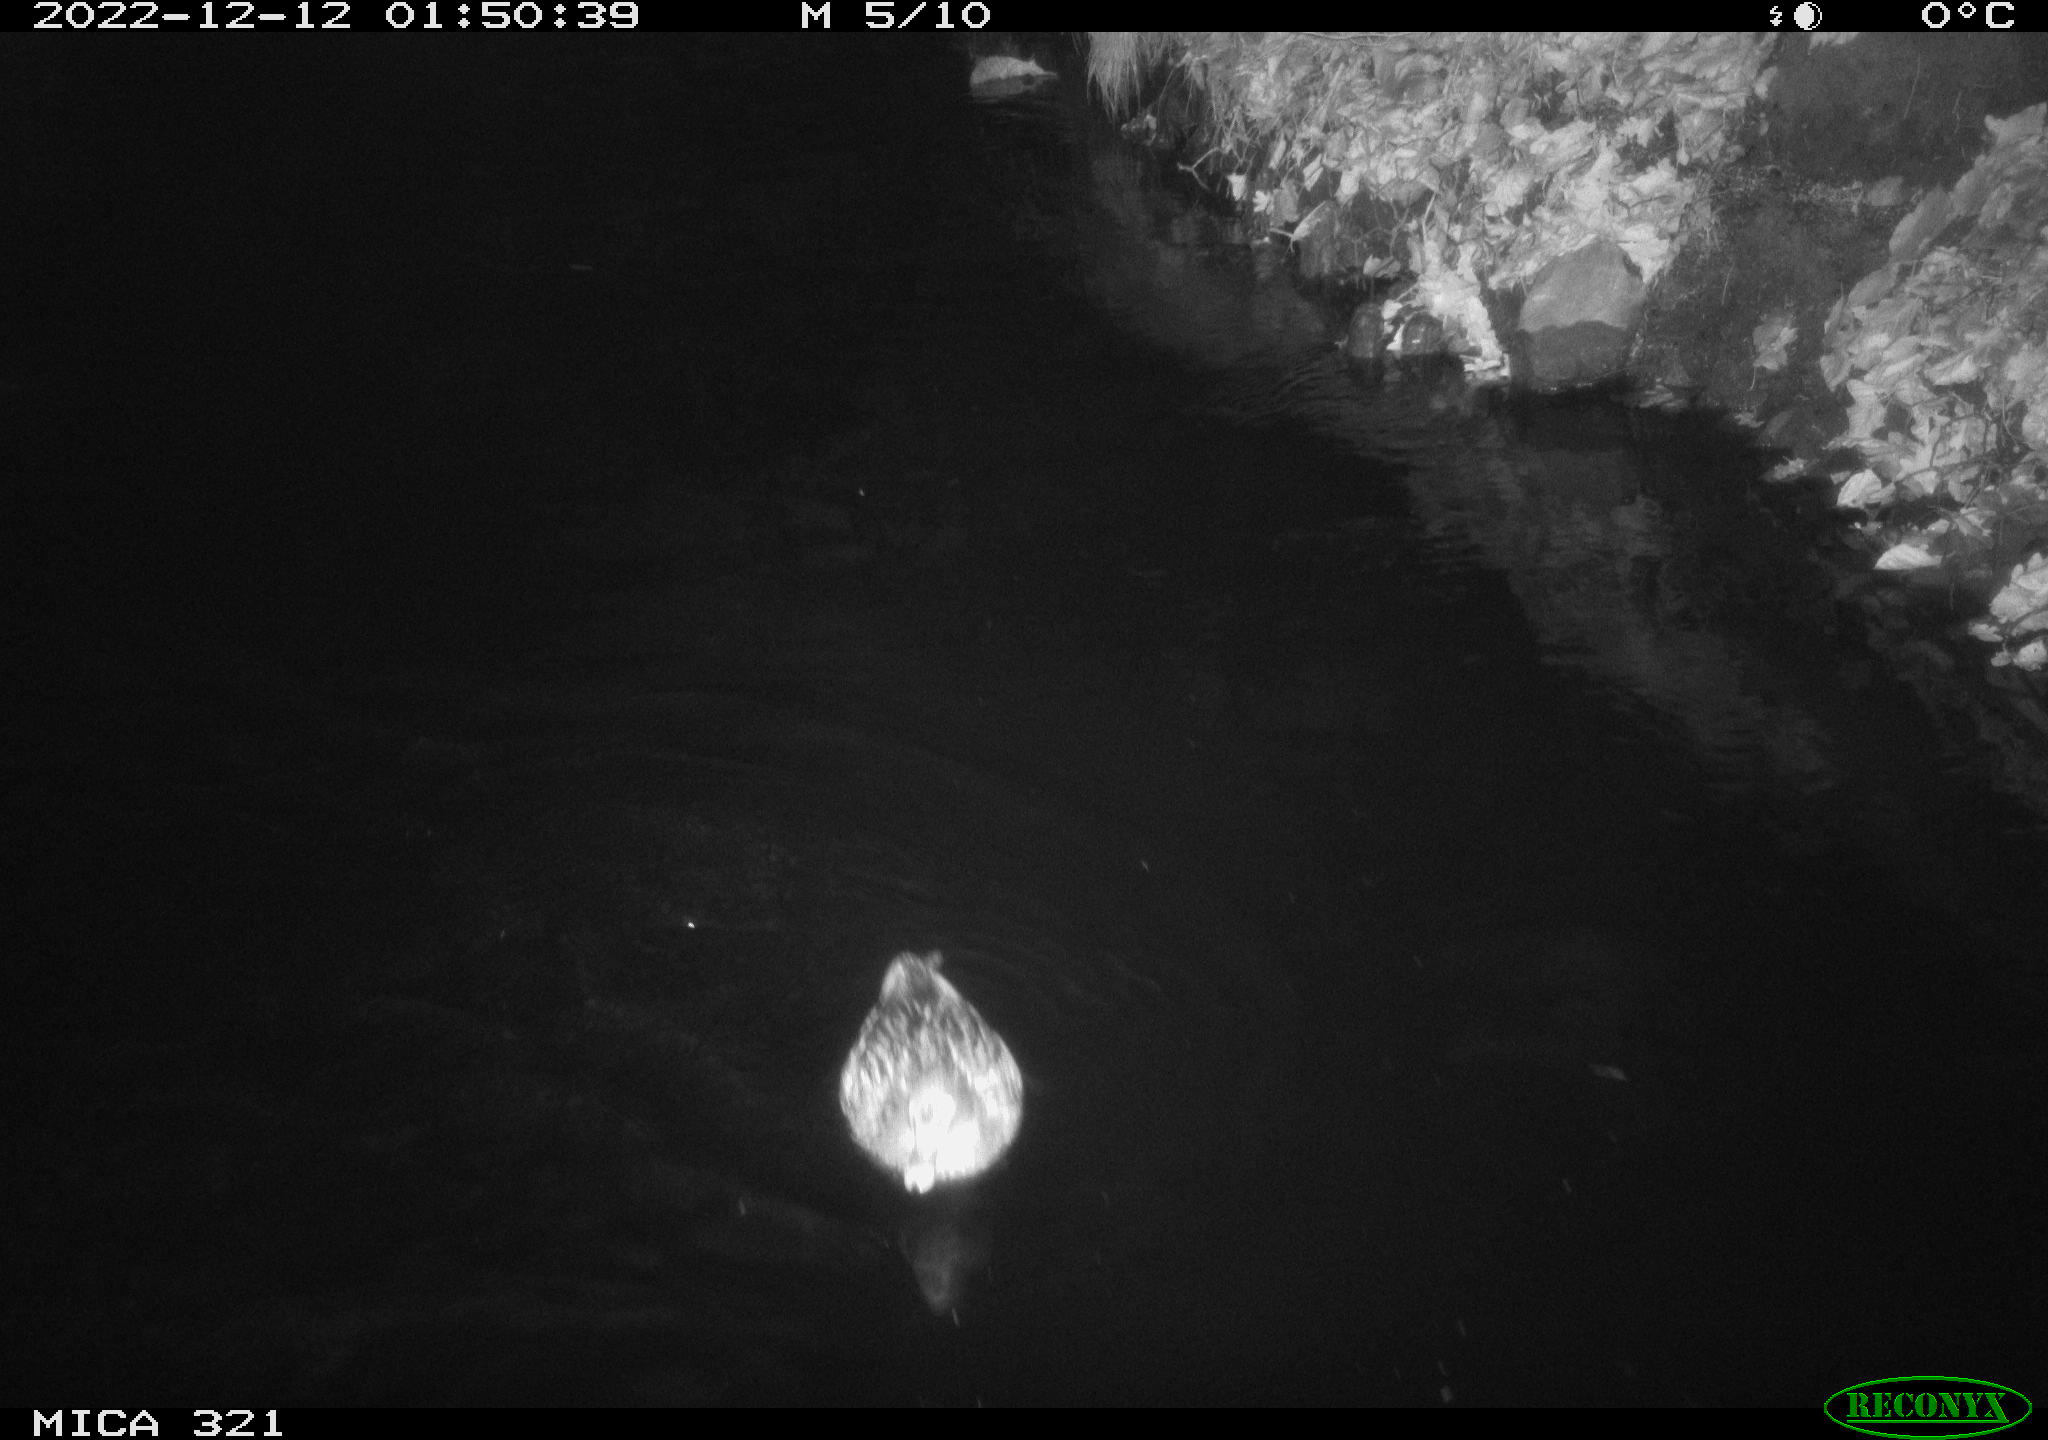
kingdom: Animalia
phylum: Chordata
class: Aves
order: Anseriformes
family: Anatidae
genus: Anas
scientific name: Anas
